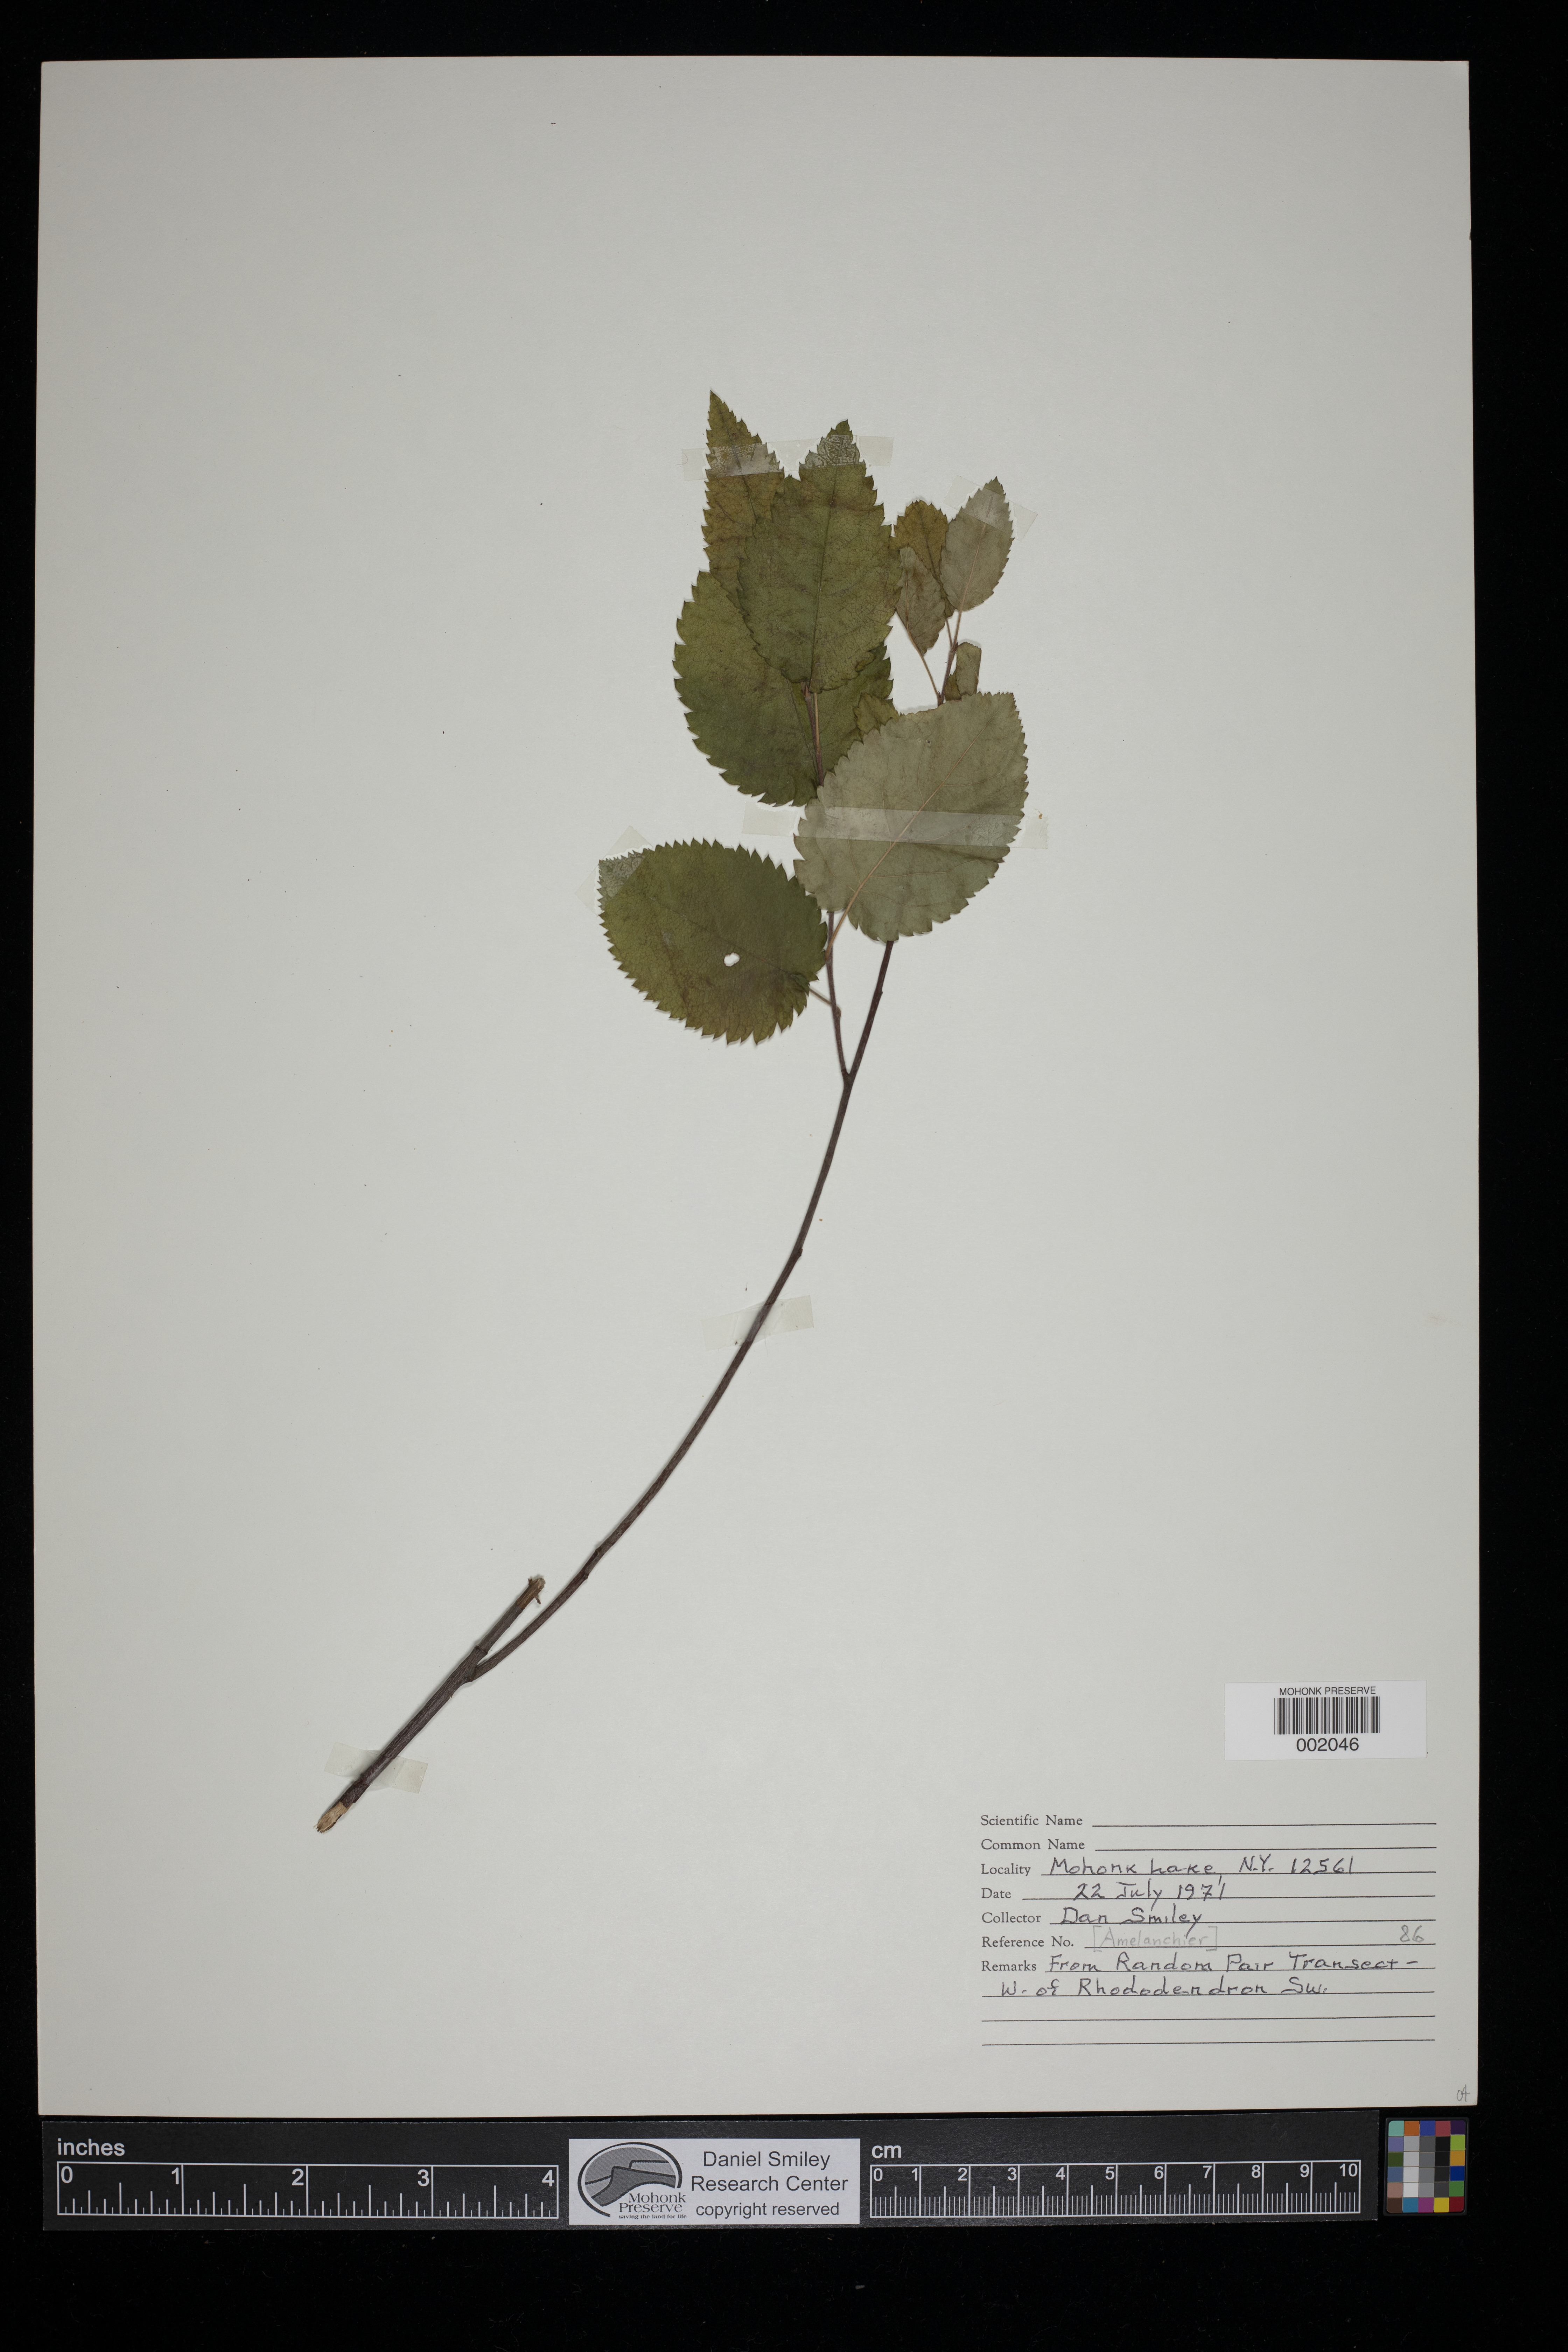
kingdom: Plantae
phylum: Tracheophyta
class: Magnoliopsida
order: Rosales
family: Rosaceae
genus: Amelanchier
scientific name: Amelanchier
